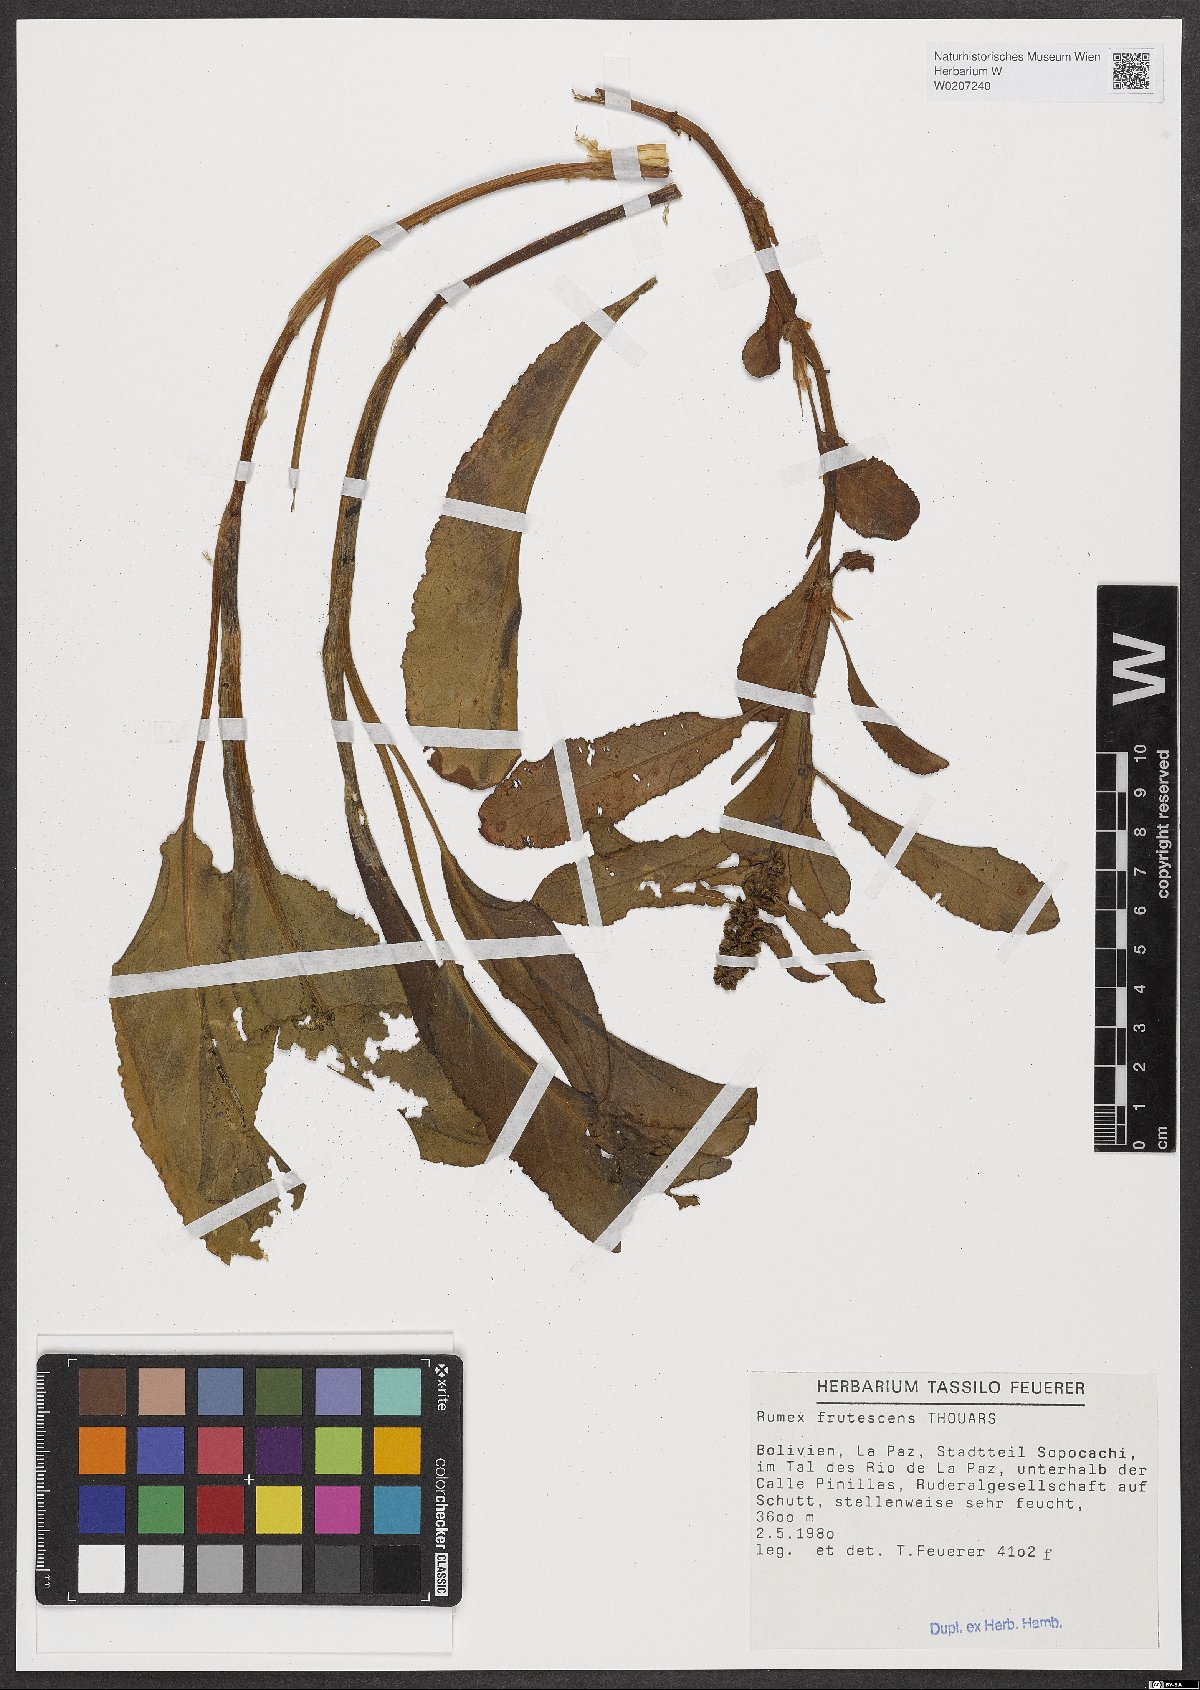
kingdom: Plantae
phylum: Tracheophyta
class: Magnoliopsida
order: Caryophyllales
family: Polygonaceae
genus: Rumex
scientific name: Rumex frutescens
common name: Argentine dock
